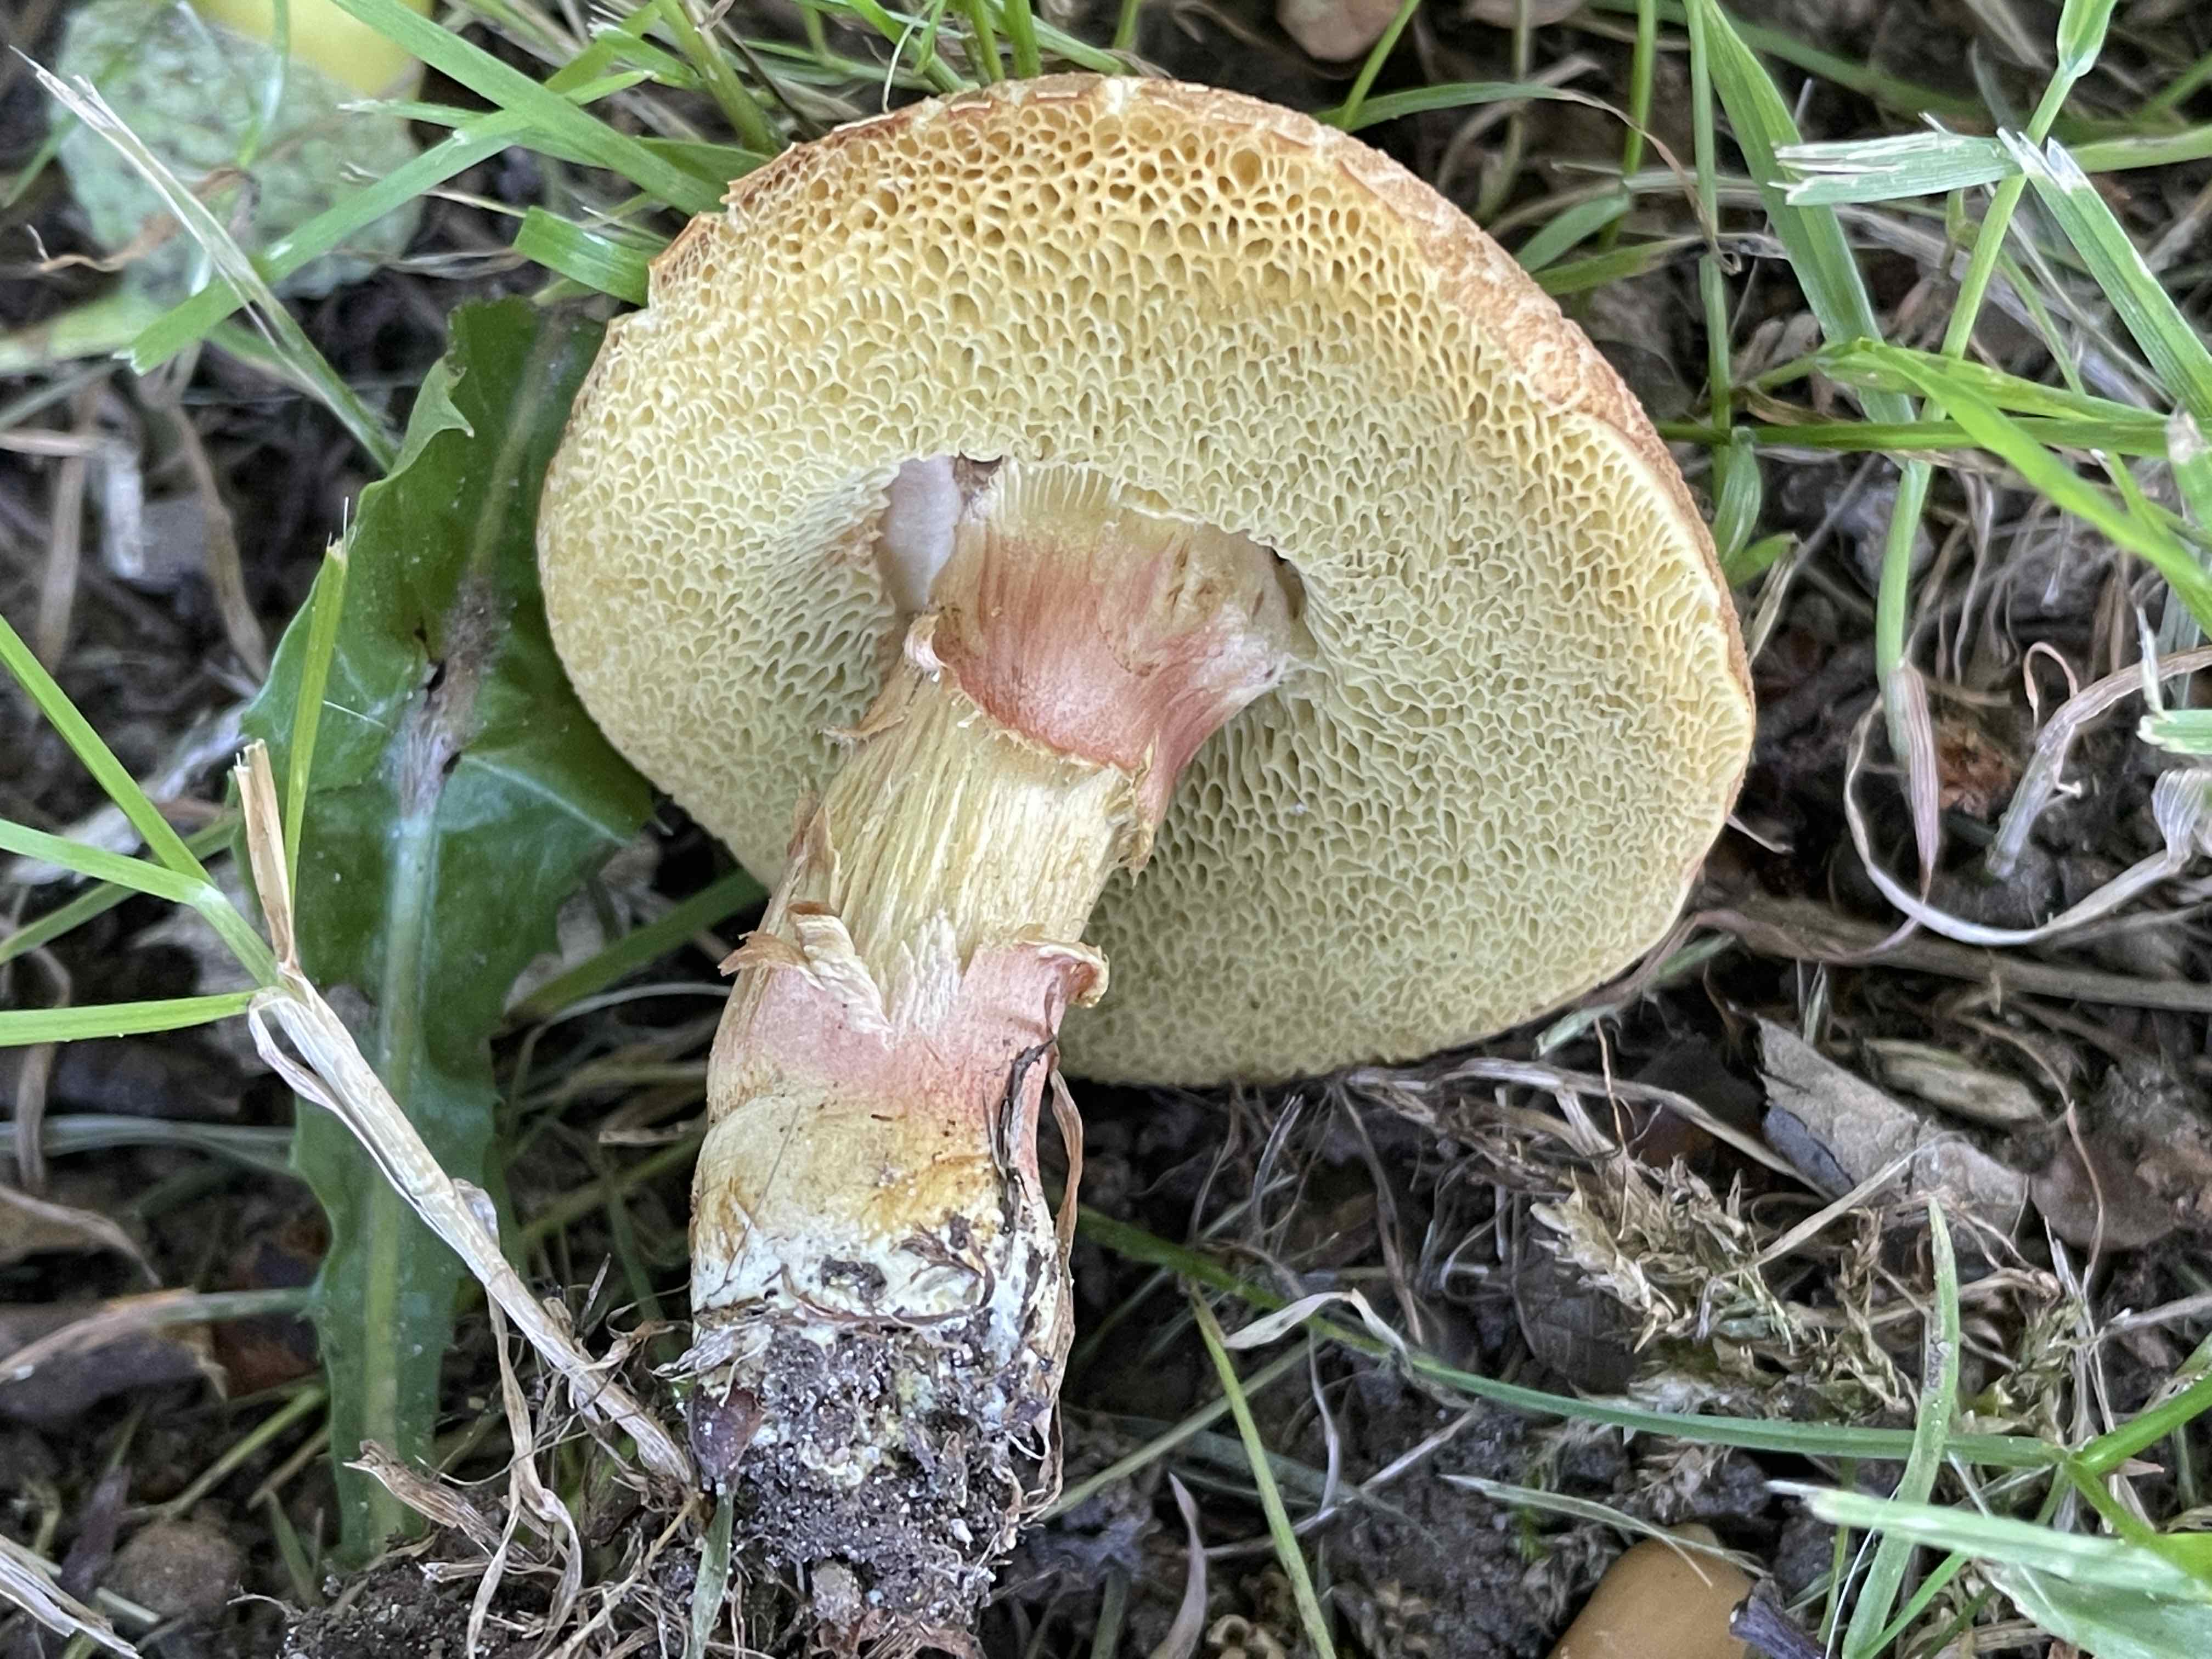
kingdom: Fungi
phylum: Basidiomycota
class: Agaricomycetes
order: Boletales
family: Boletaceae
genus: Hortiboletus
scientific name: Hortiboletus engelii
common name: fersken-rørhat
